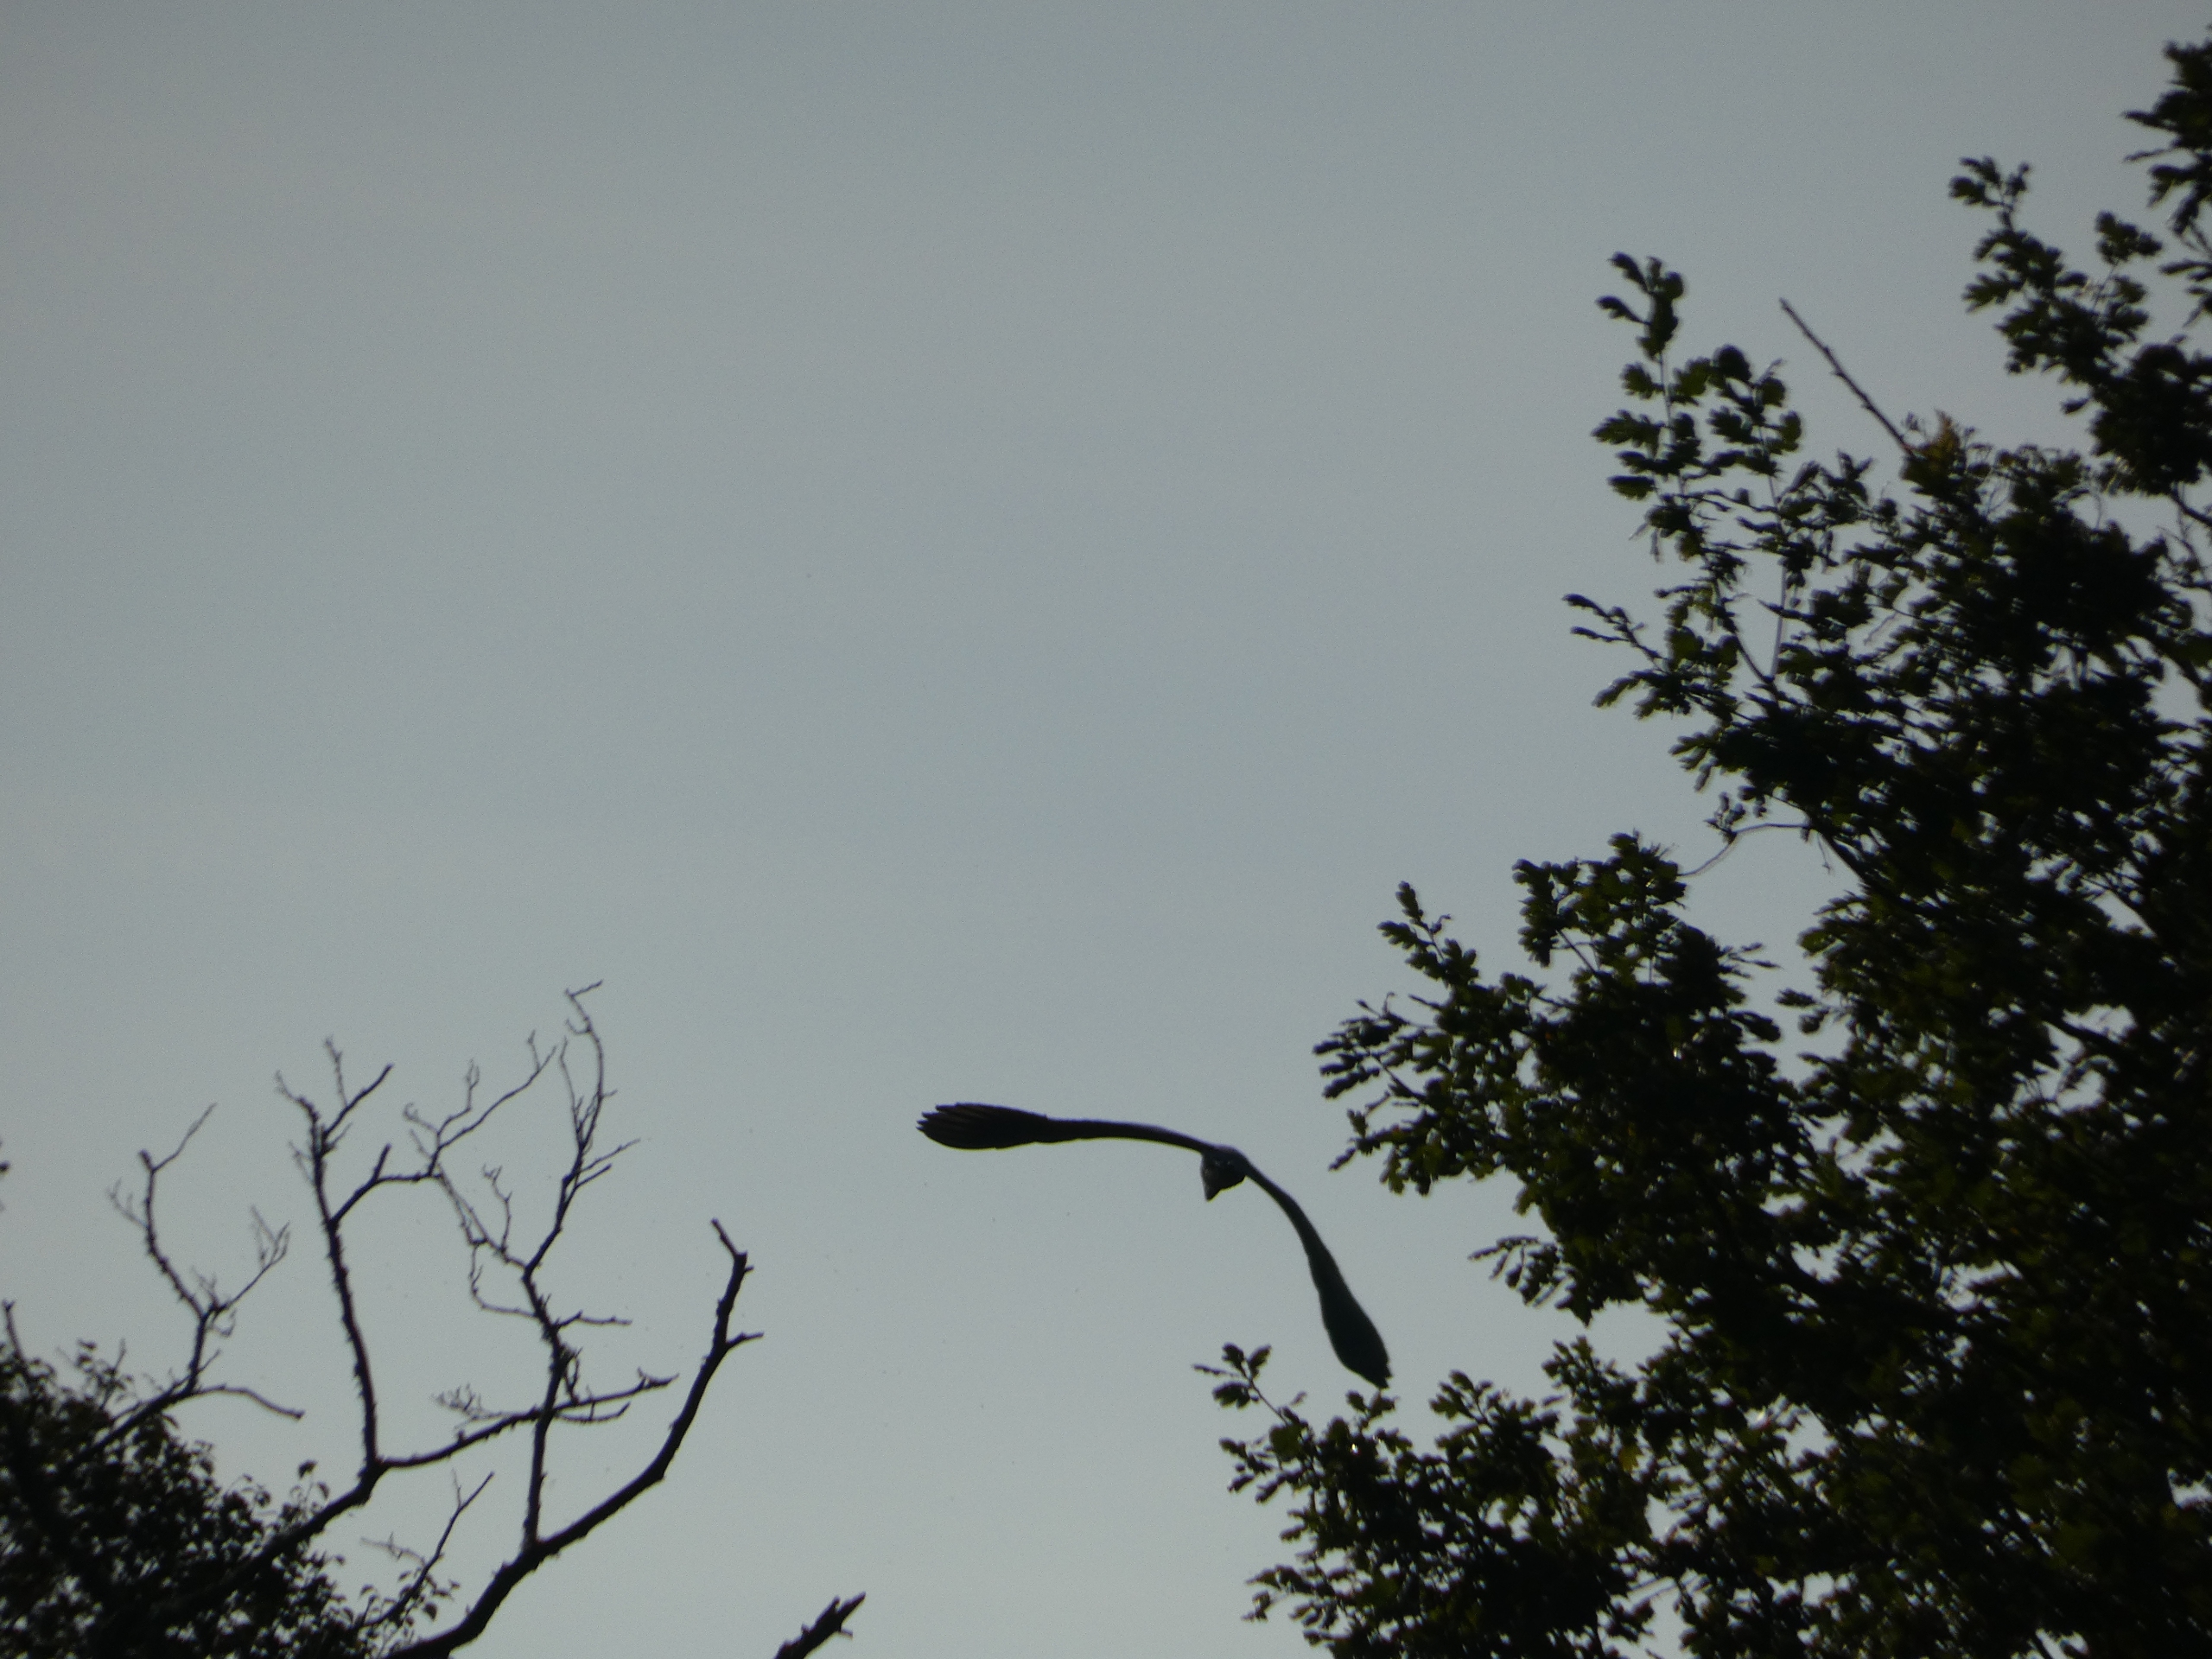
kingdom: Animalia
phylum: Chordata
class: Aves
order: Pelecaniformes
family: Ardeidae
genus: Ardea
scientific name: Ardea cinerea
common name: Fiskehejre
